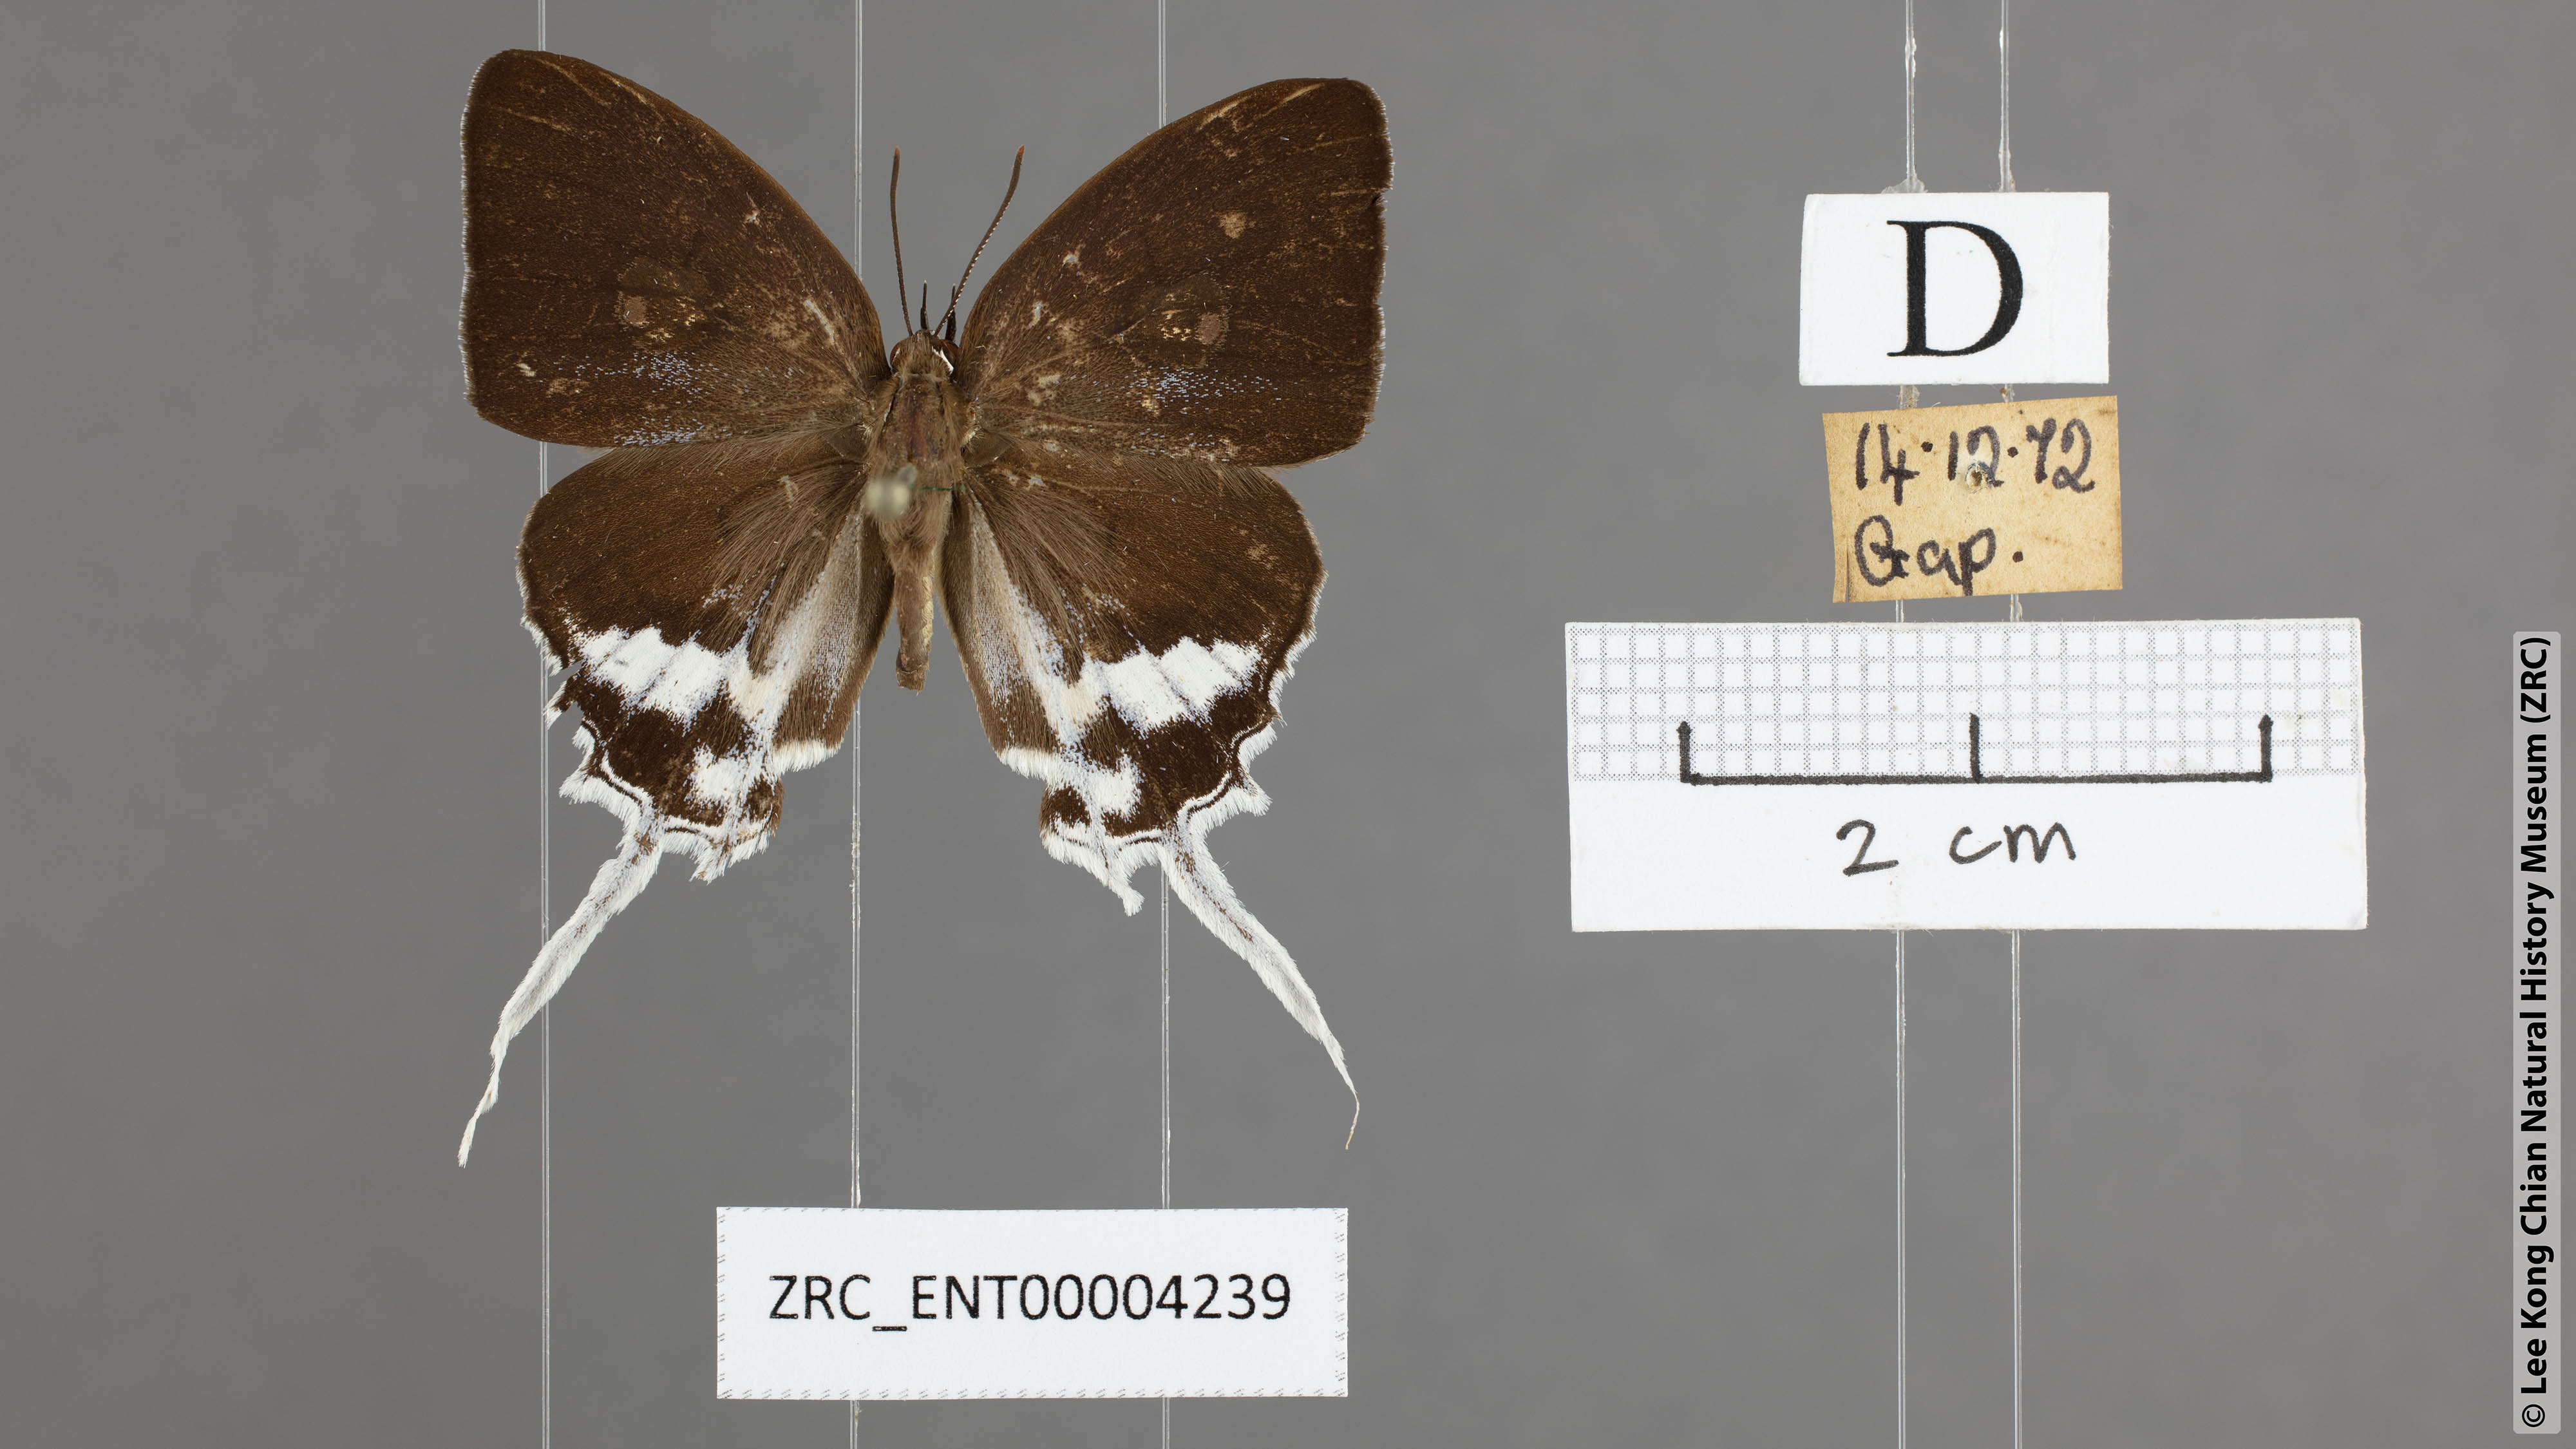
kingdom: Animalia
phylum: Arthropoda
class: Insecta
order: Lepidoptera
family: Lycaenidae
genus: Eooxylides
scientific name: Eooxylides tharis
